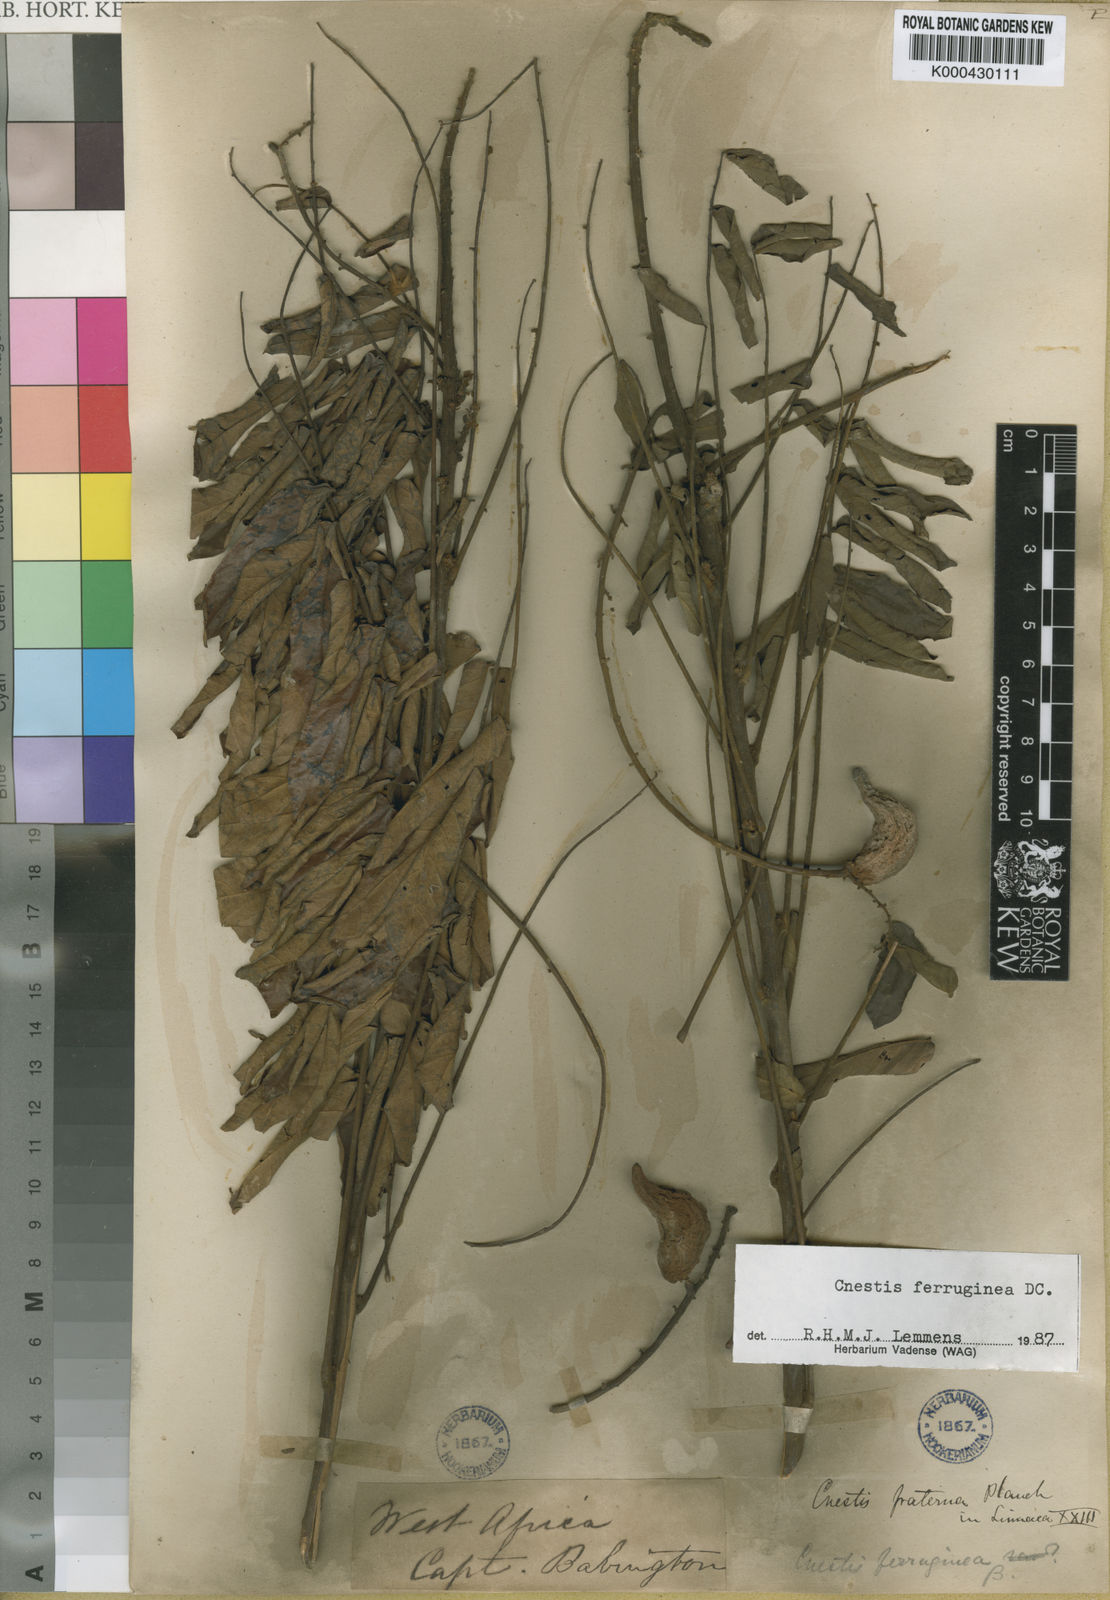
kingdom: Plantae
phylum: Tracheophyta
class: Magnoliopsida
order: Oxalidales
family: Connaraceae
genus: Cnestis
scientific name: Cnestis ferruginea
